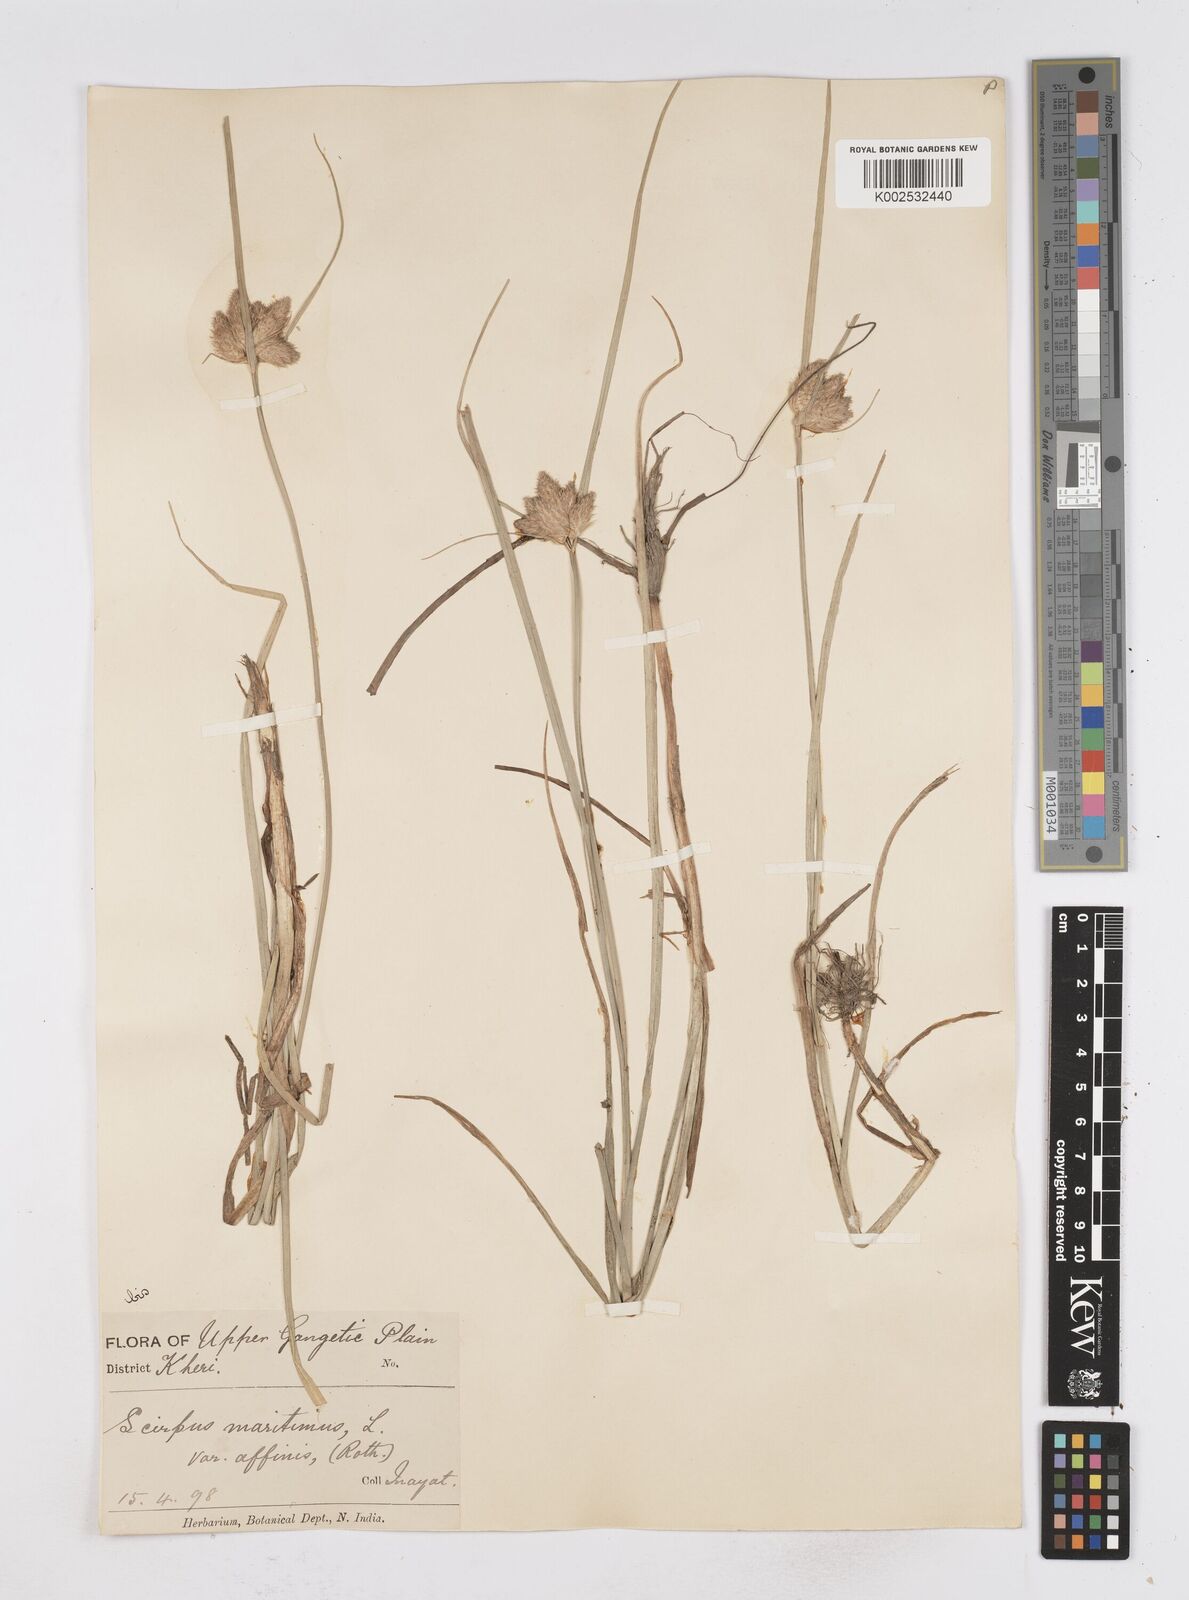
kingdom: Plantae
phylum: Tracheophyta
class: Liliopsida
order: Poales
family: Cyperaceae
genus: Bolboschoenus
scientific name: Bolboschoenus maritimus
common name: Sea club-rush
